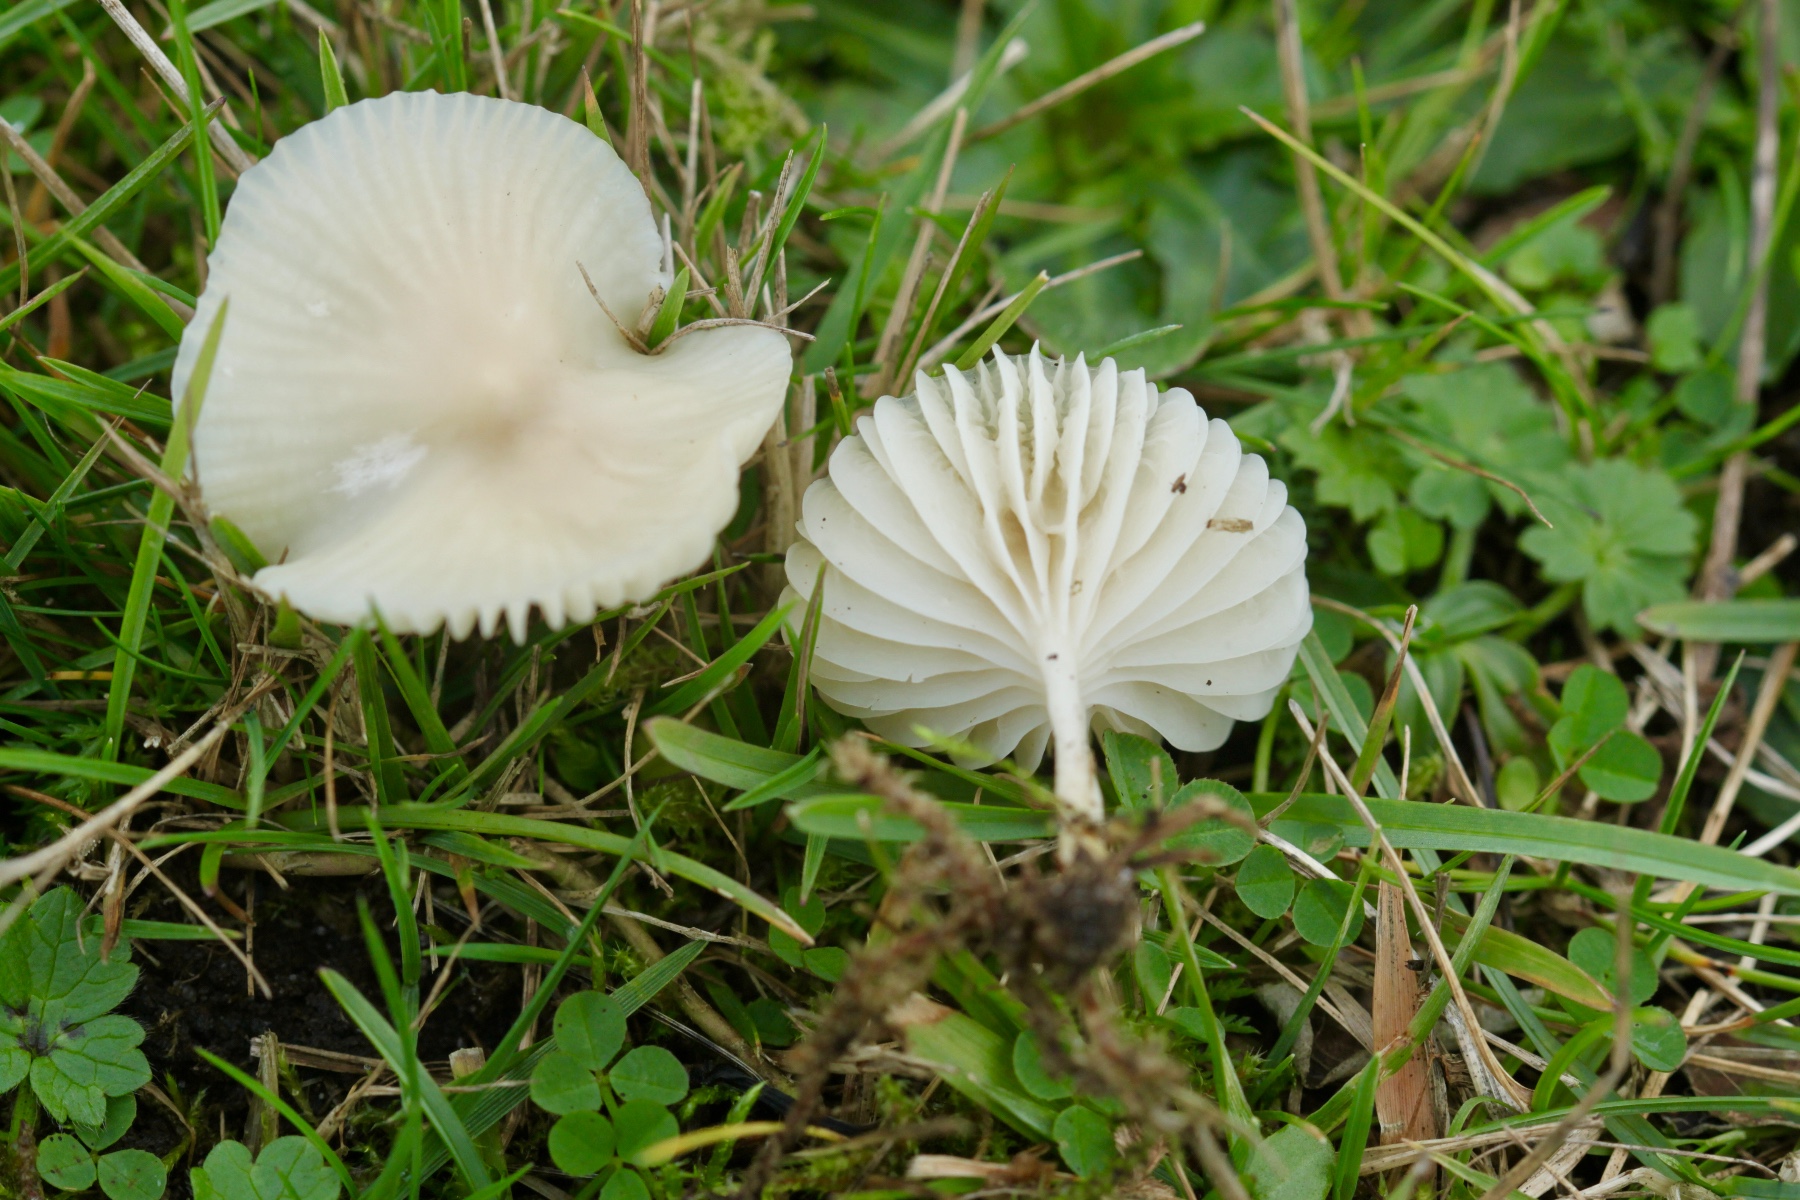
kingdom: Fungi
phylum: Basidiomycota
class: Agaricomycetes
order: Agaricales
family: Hygrophoraceae
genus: Cuphophyllus
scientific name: Cuphophyllus virgineus
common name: snehvid vokshat
